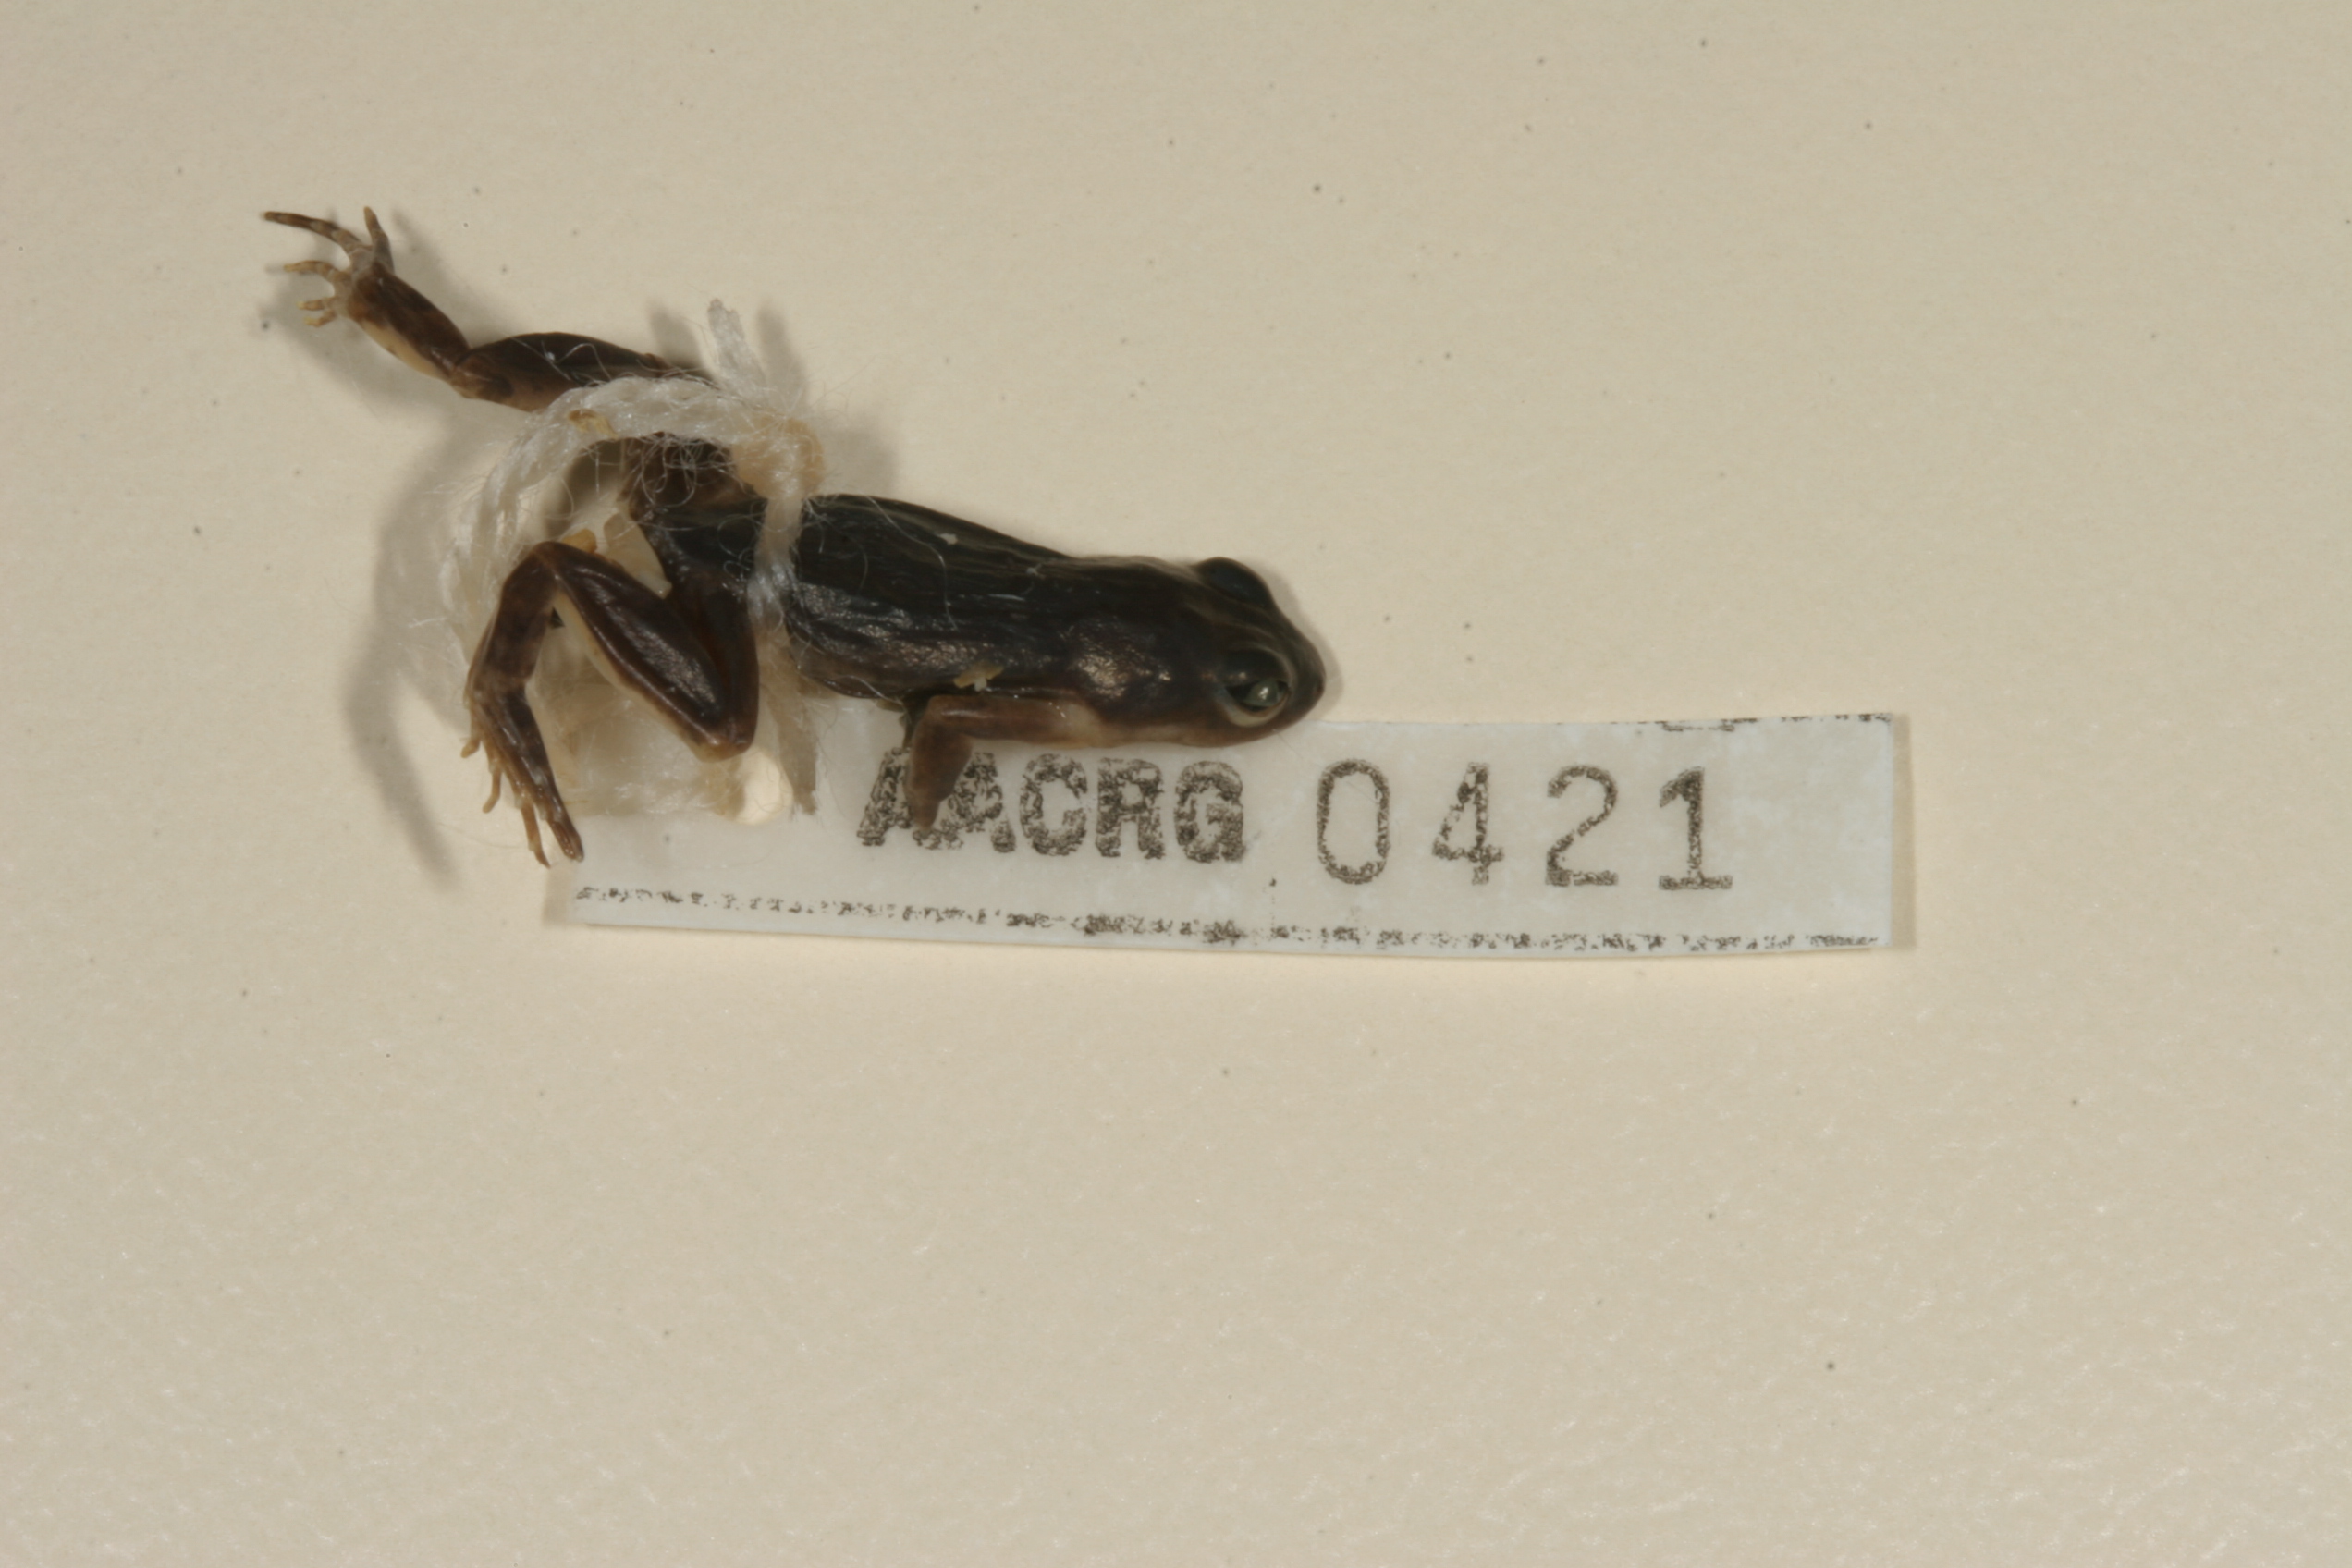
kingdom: Animalia
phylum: Chordata
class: Amphibia
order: Anura
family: Pyxicephalidae
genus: Cacosternum
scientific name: Cacosternum boettgeri
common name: Boettger's frog
